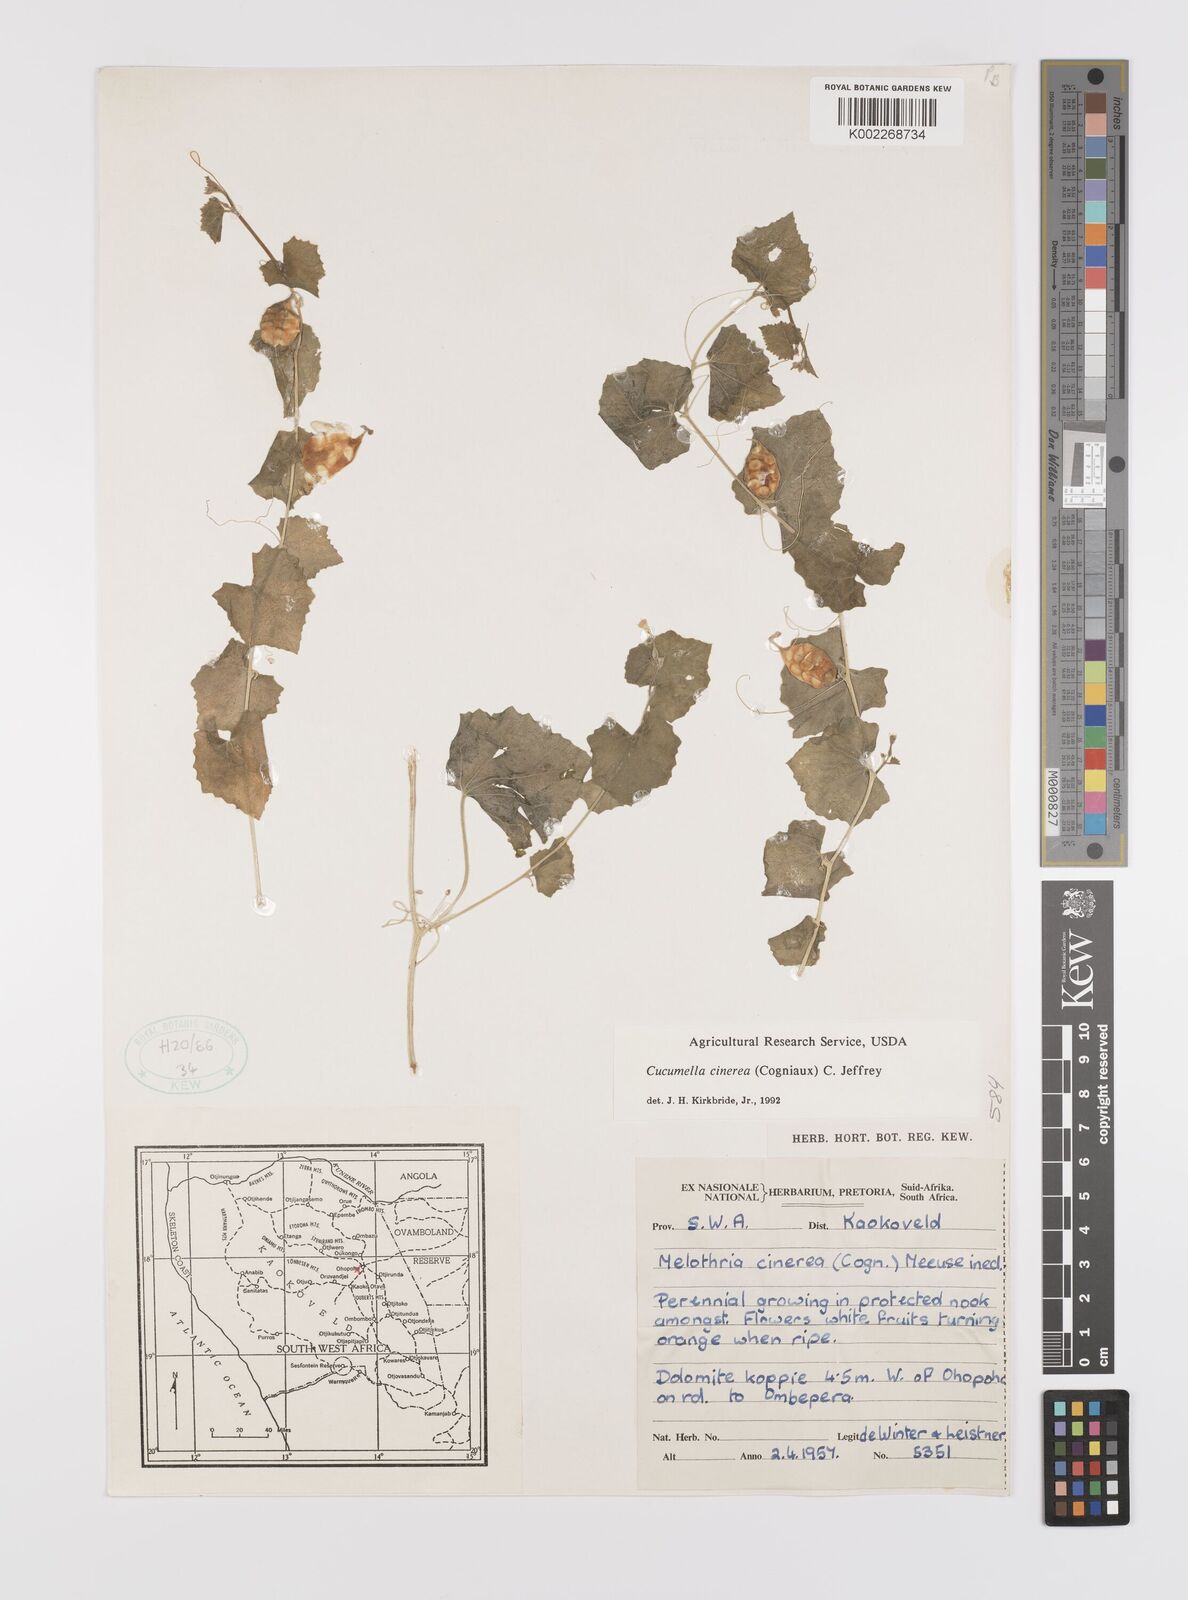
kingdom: Plantae
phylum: Tracheophyta
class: Magnoliopsida
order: Cucurbitales
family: Cucurbitaceae
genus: Cucumis
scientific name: Cucumis cinereus
